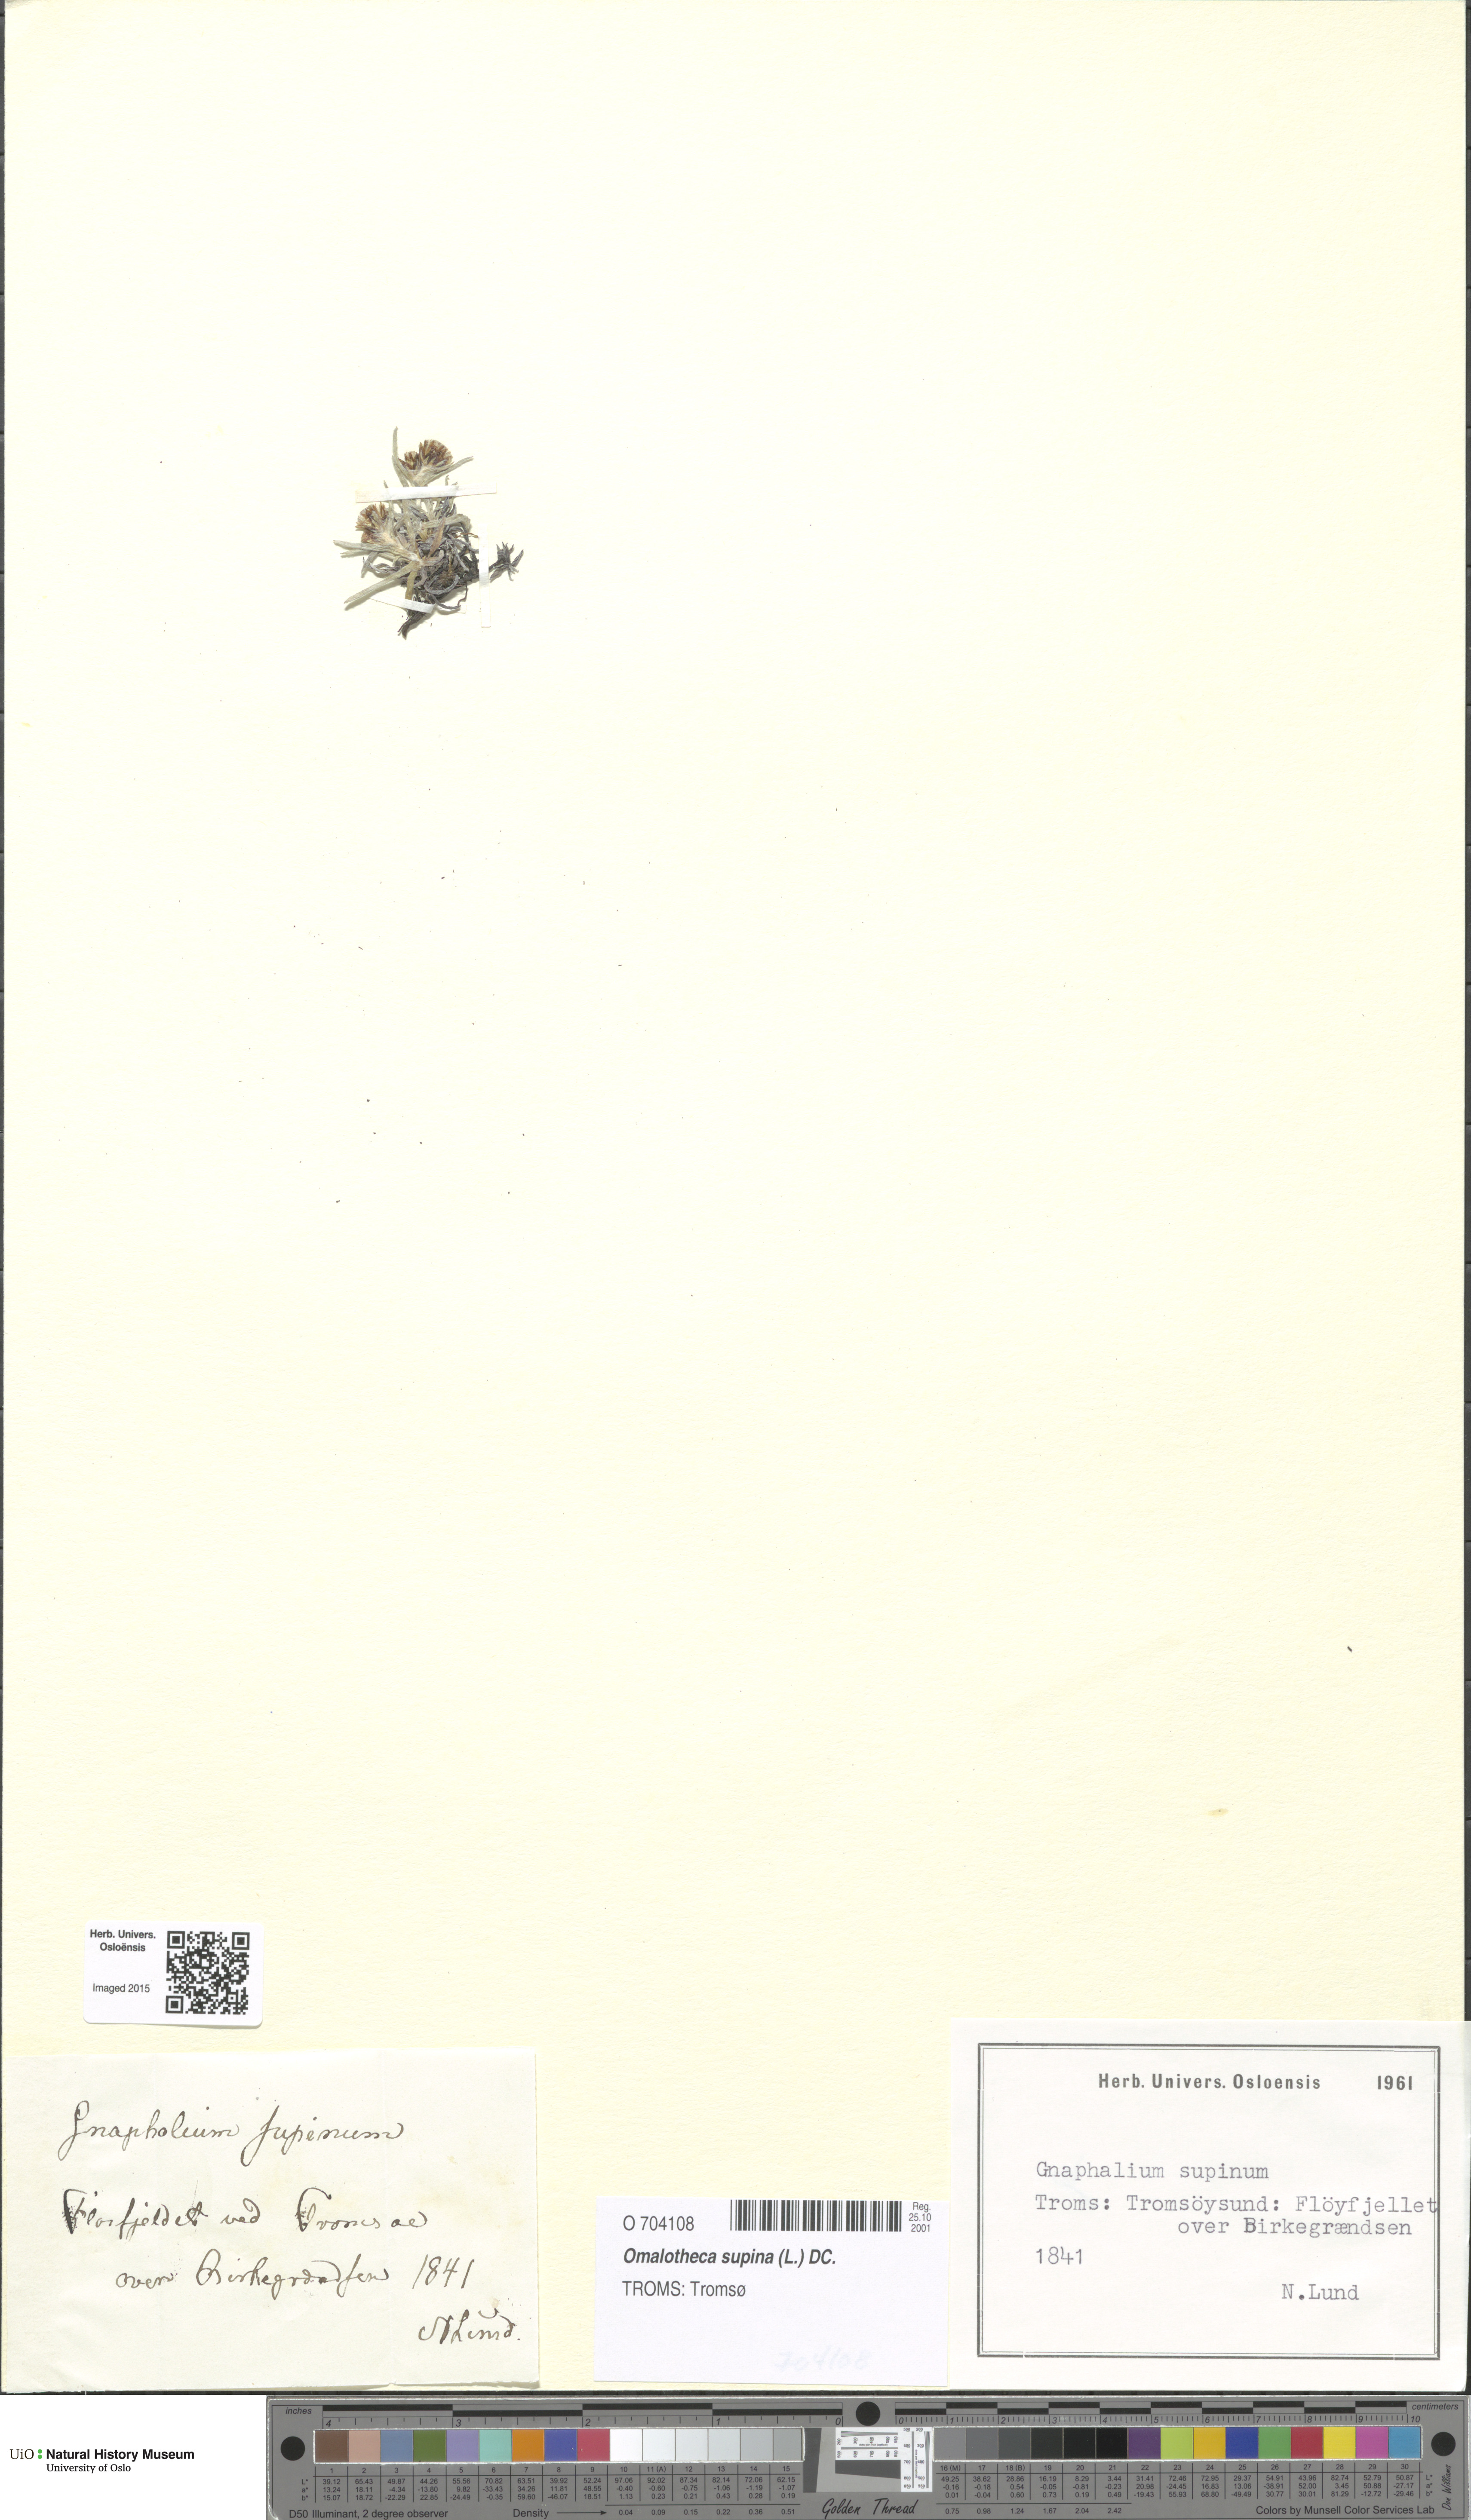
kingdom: Plantae
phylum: Tracheophyta
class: Magnoliopsida
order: Asterales
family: Asteraceae
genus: Omalotheca
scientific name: Omalotheca supina
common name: Alpine arctic-cudweed
